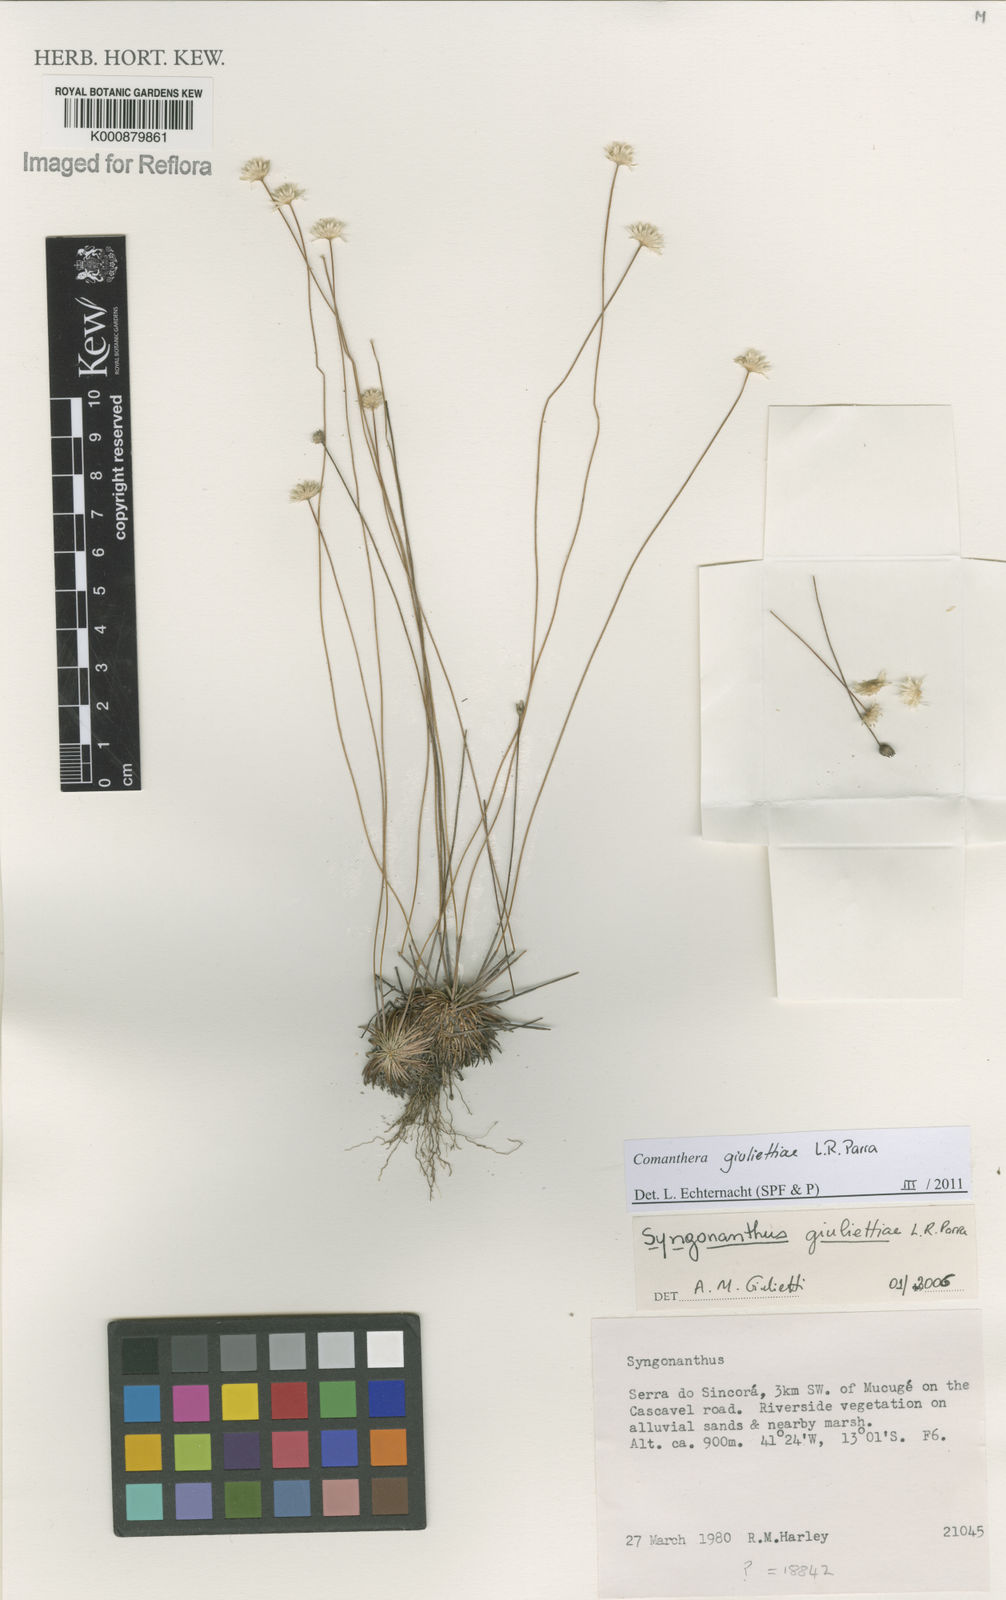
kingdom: Plantae
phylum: Tracheophyta
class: Liliopsida
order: Poales
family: Eriocaulaceae
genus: Comanthera
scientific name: Comanthera giuliettiae
